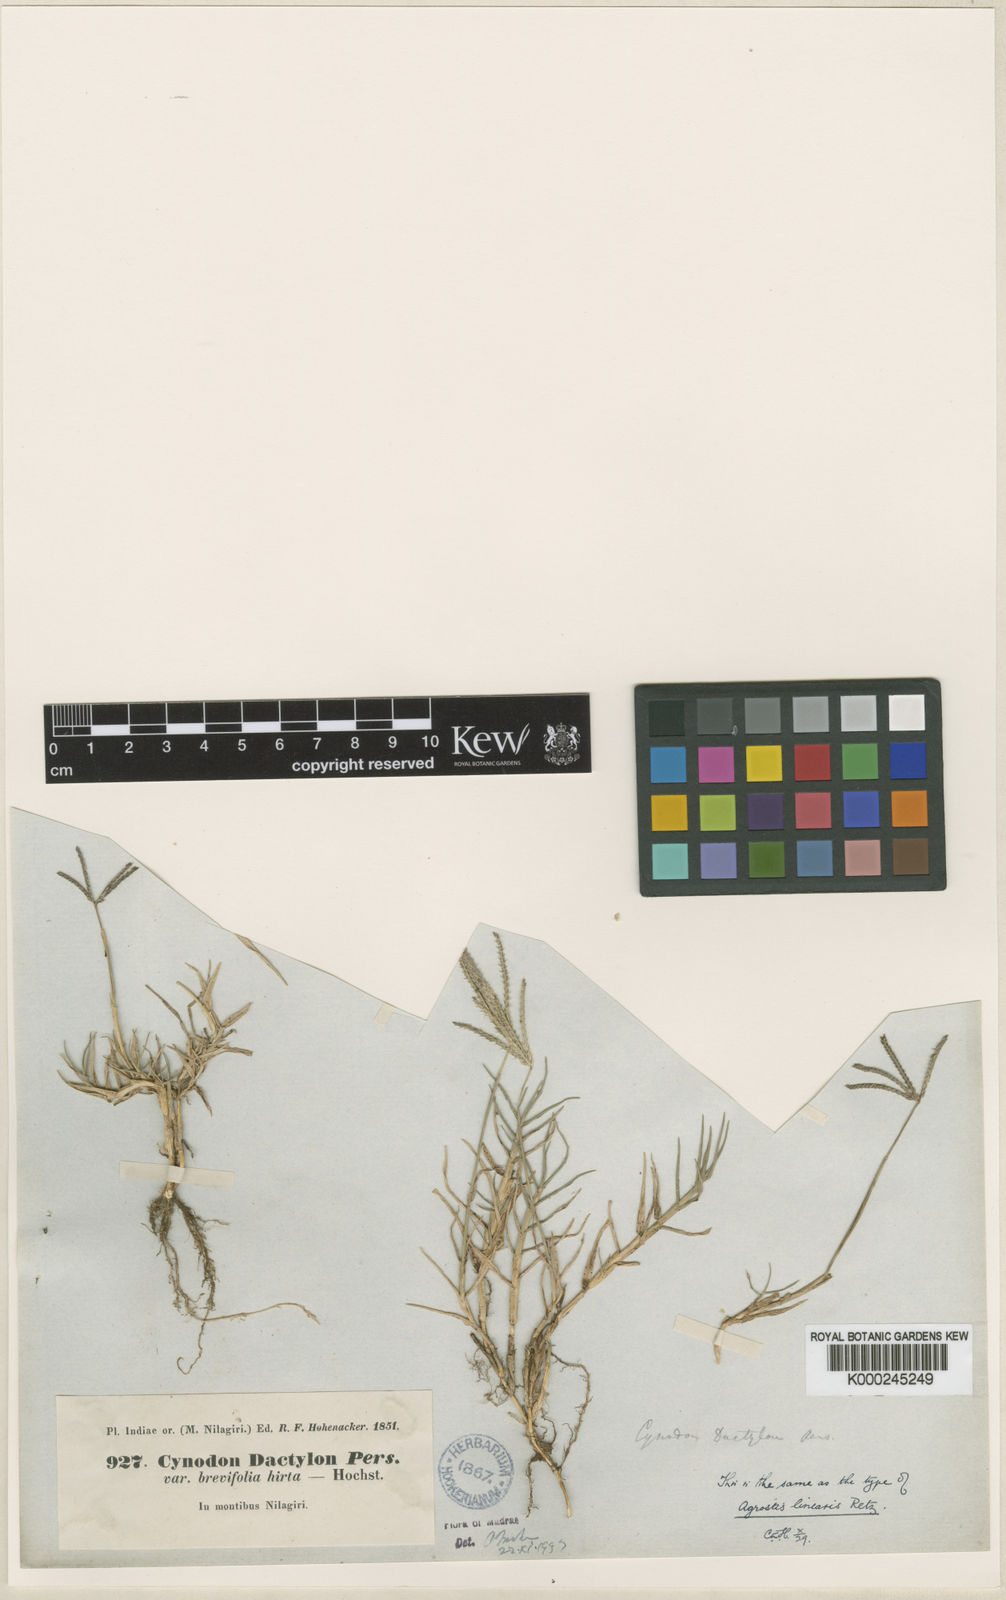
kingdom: Plantae
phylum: Tracheophyta
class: Liliopsida
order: Poales
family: Poaceae
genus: Cynodon
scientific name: Cynodon dactylon
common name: Bermuda grass
